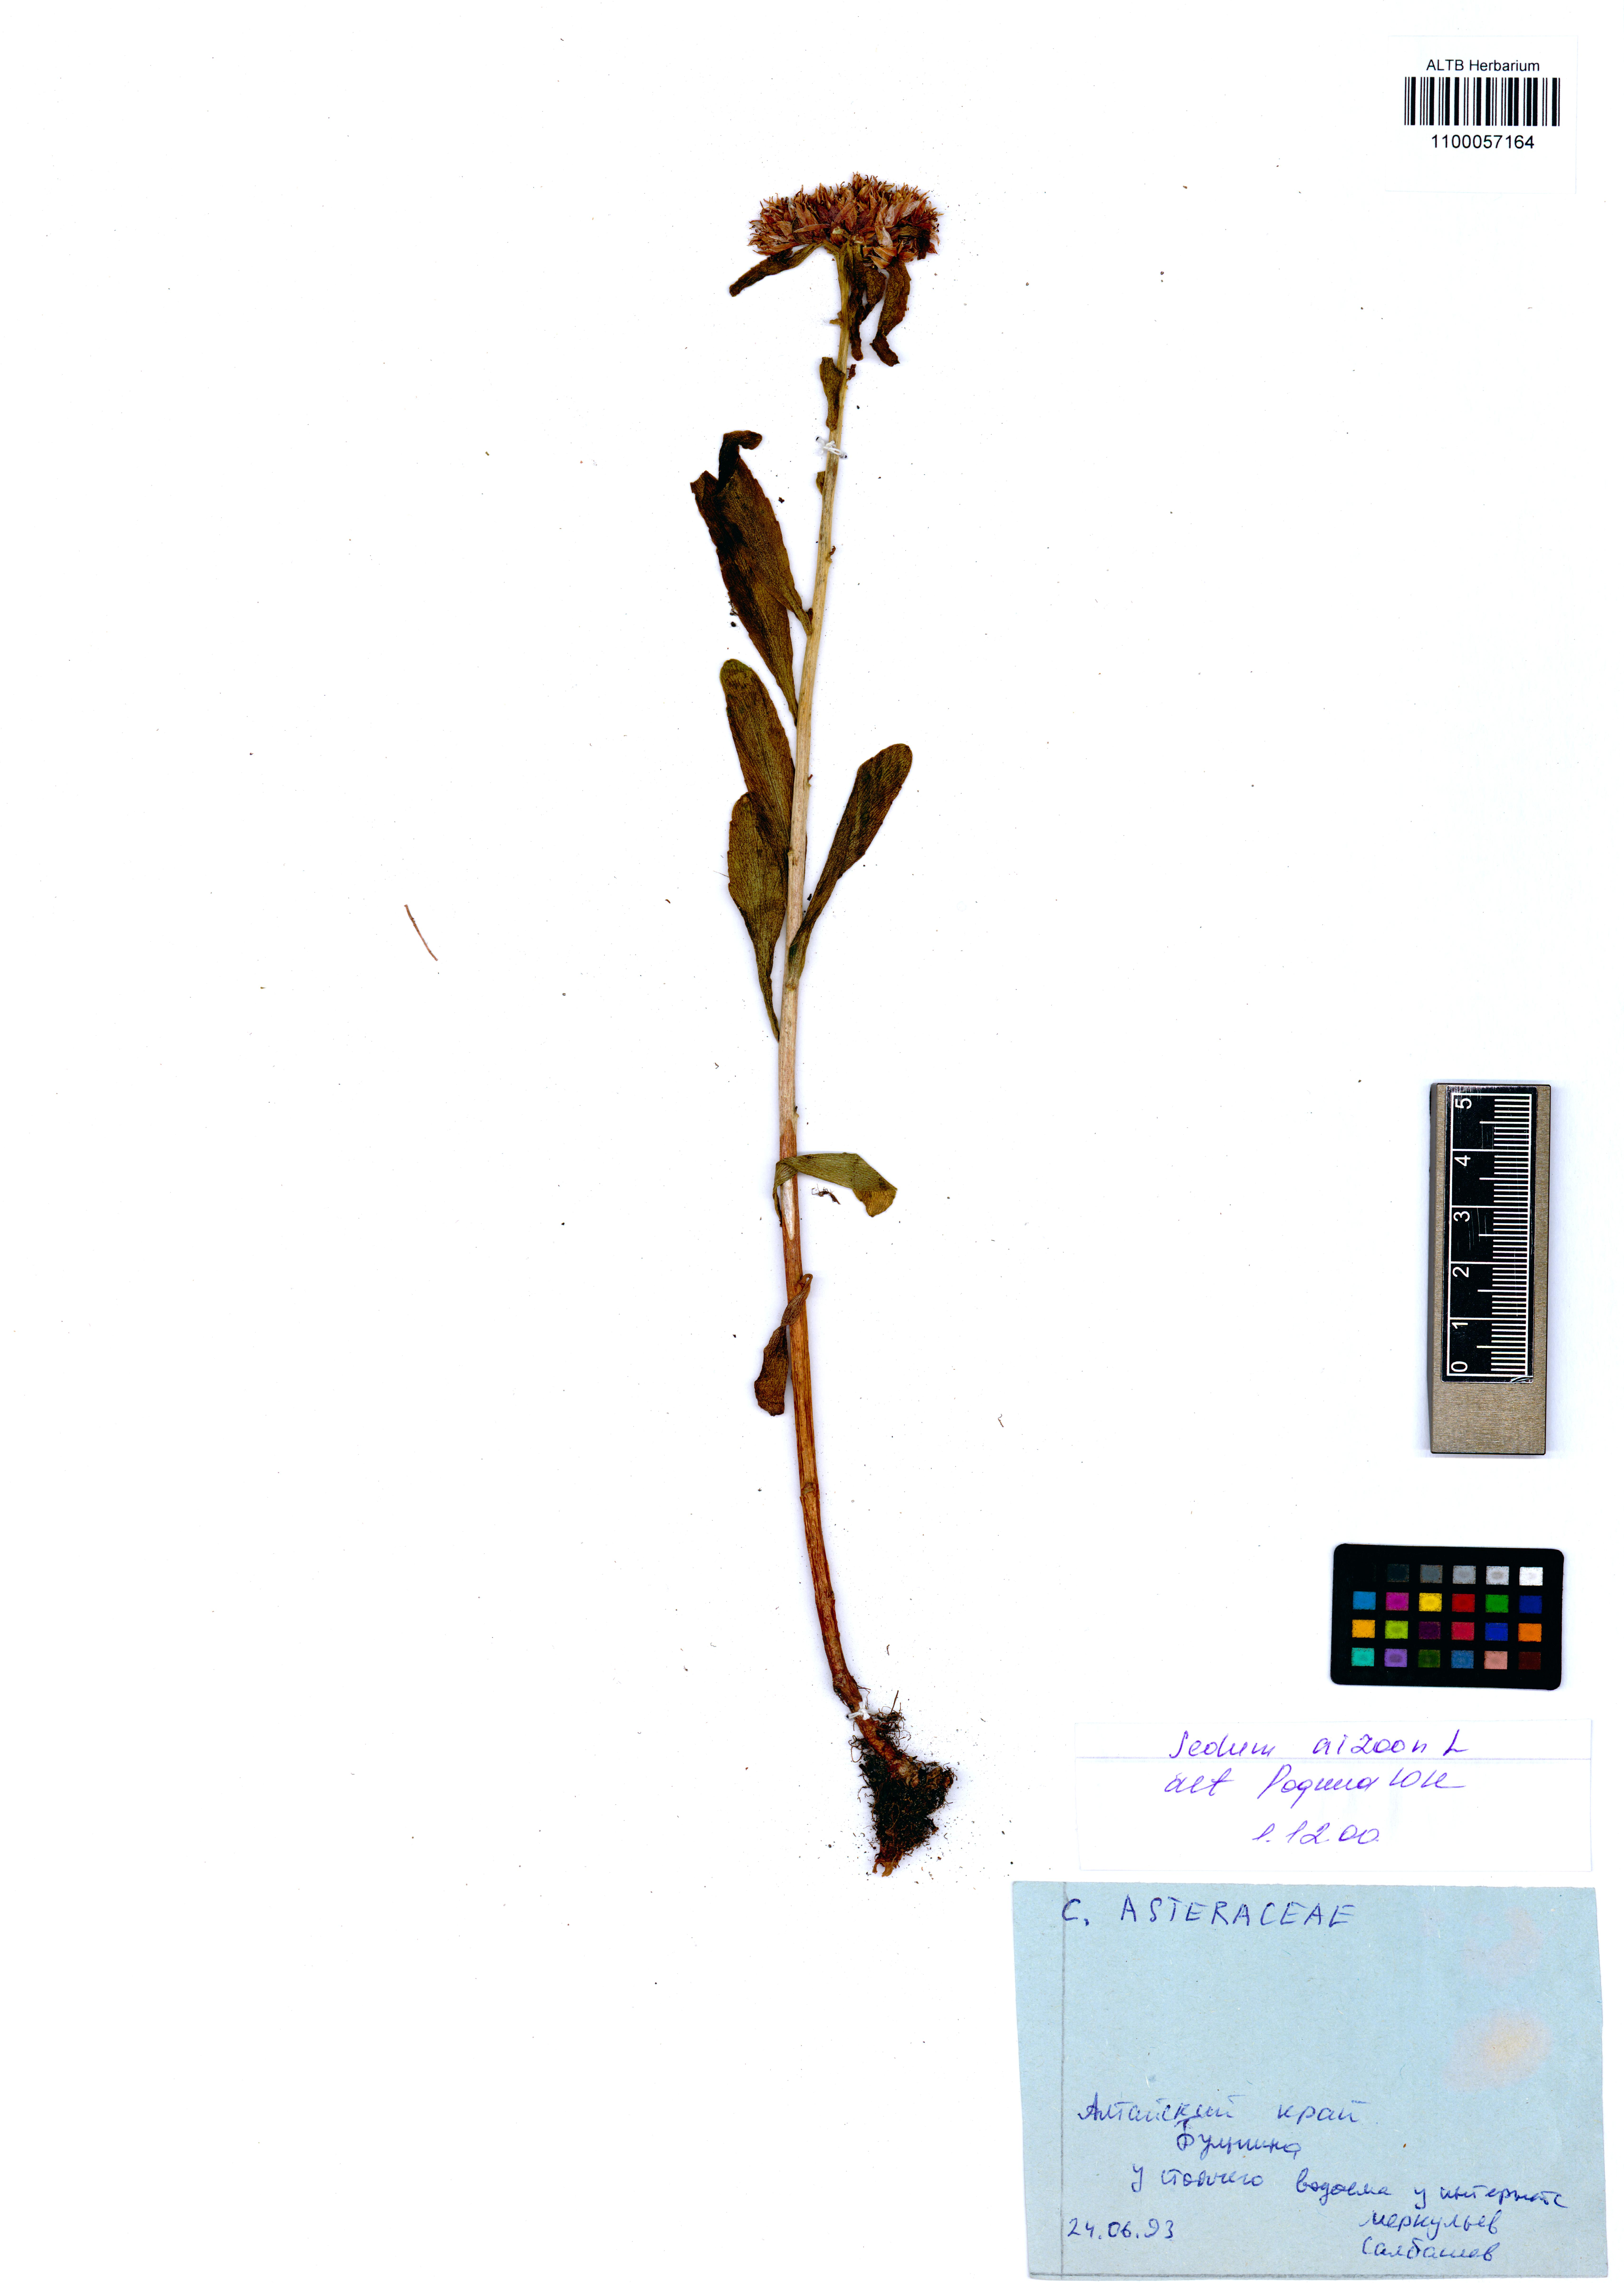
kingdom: Plantae
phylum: Tracheophyta
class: Magnoliopsida
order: Saxifragales
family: Crassulaceae
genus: Phedimus
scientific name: Phedimus aizoon
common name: Orpin aizoon
